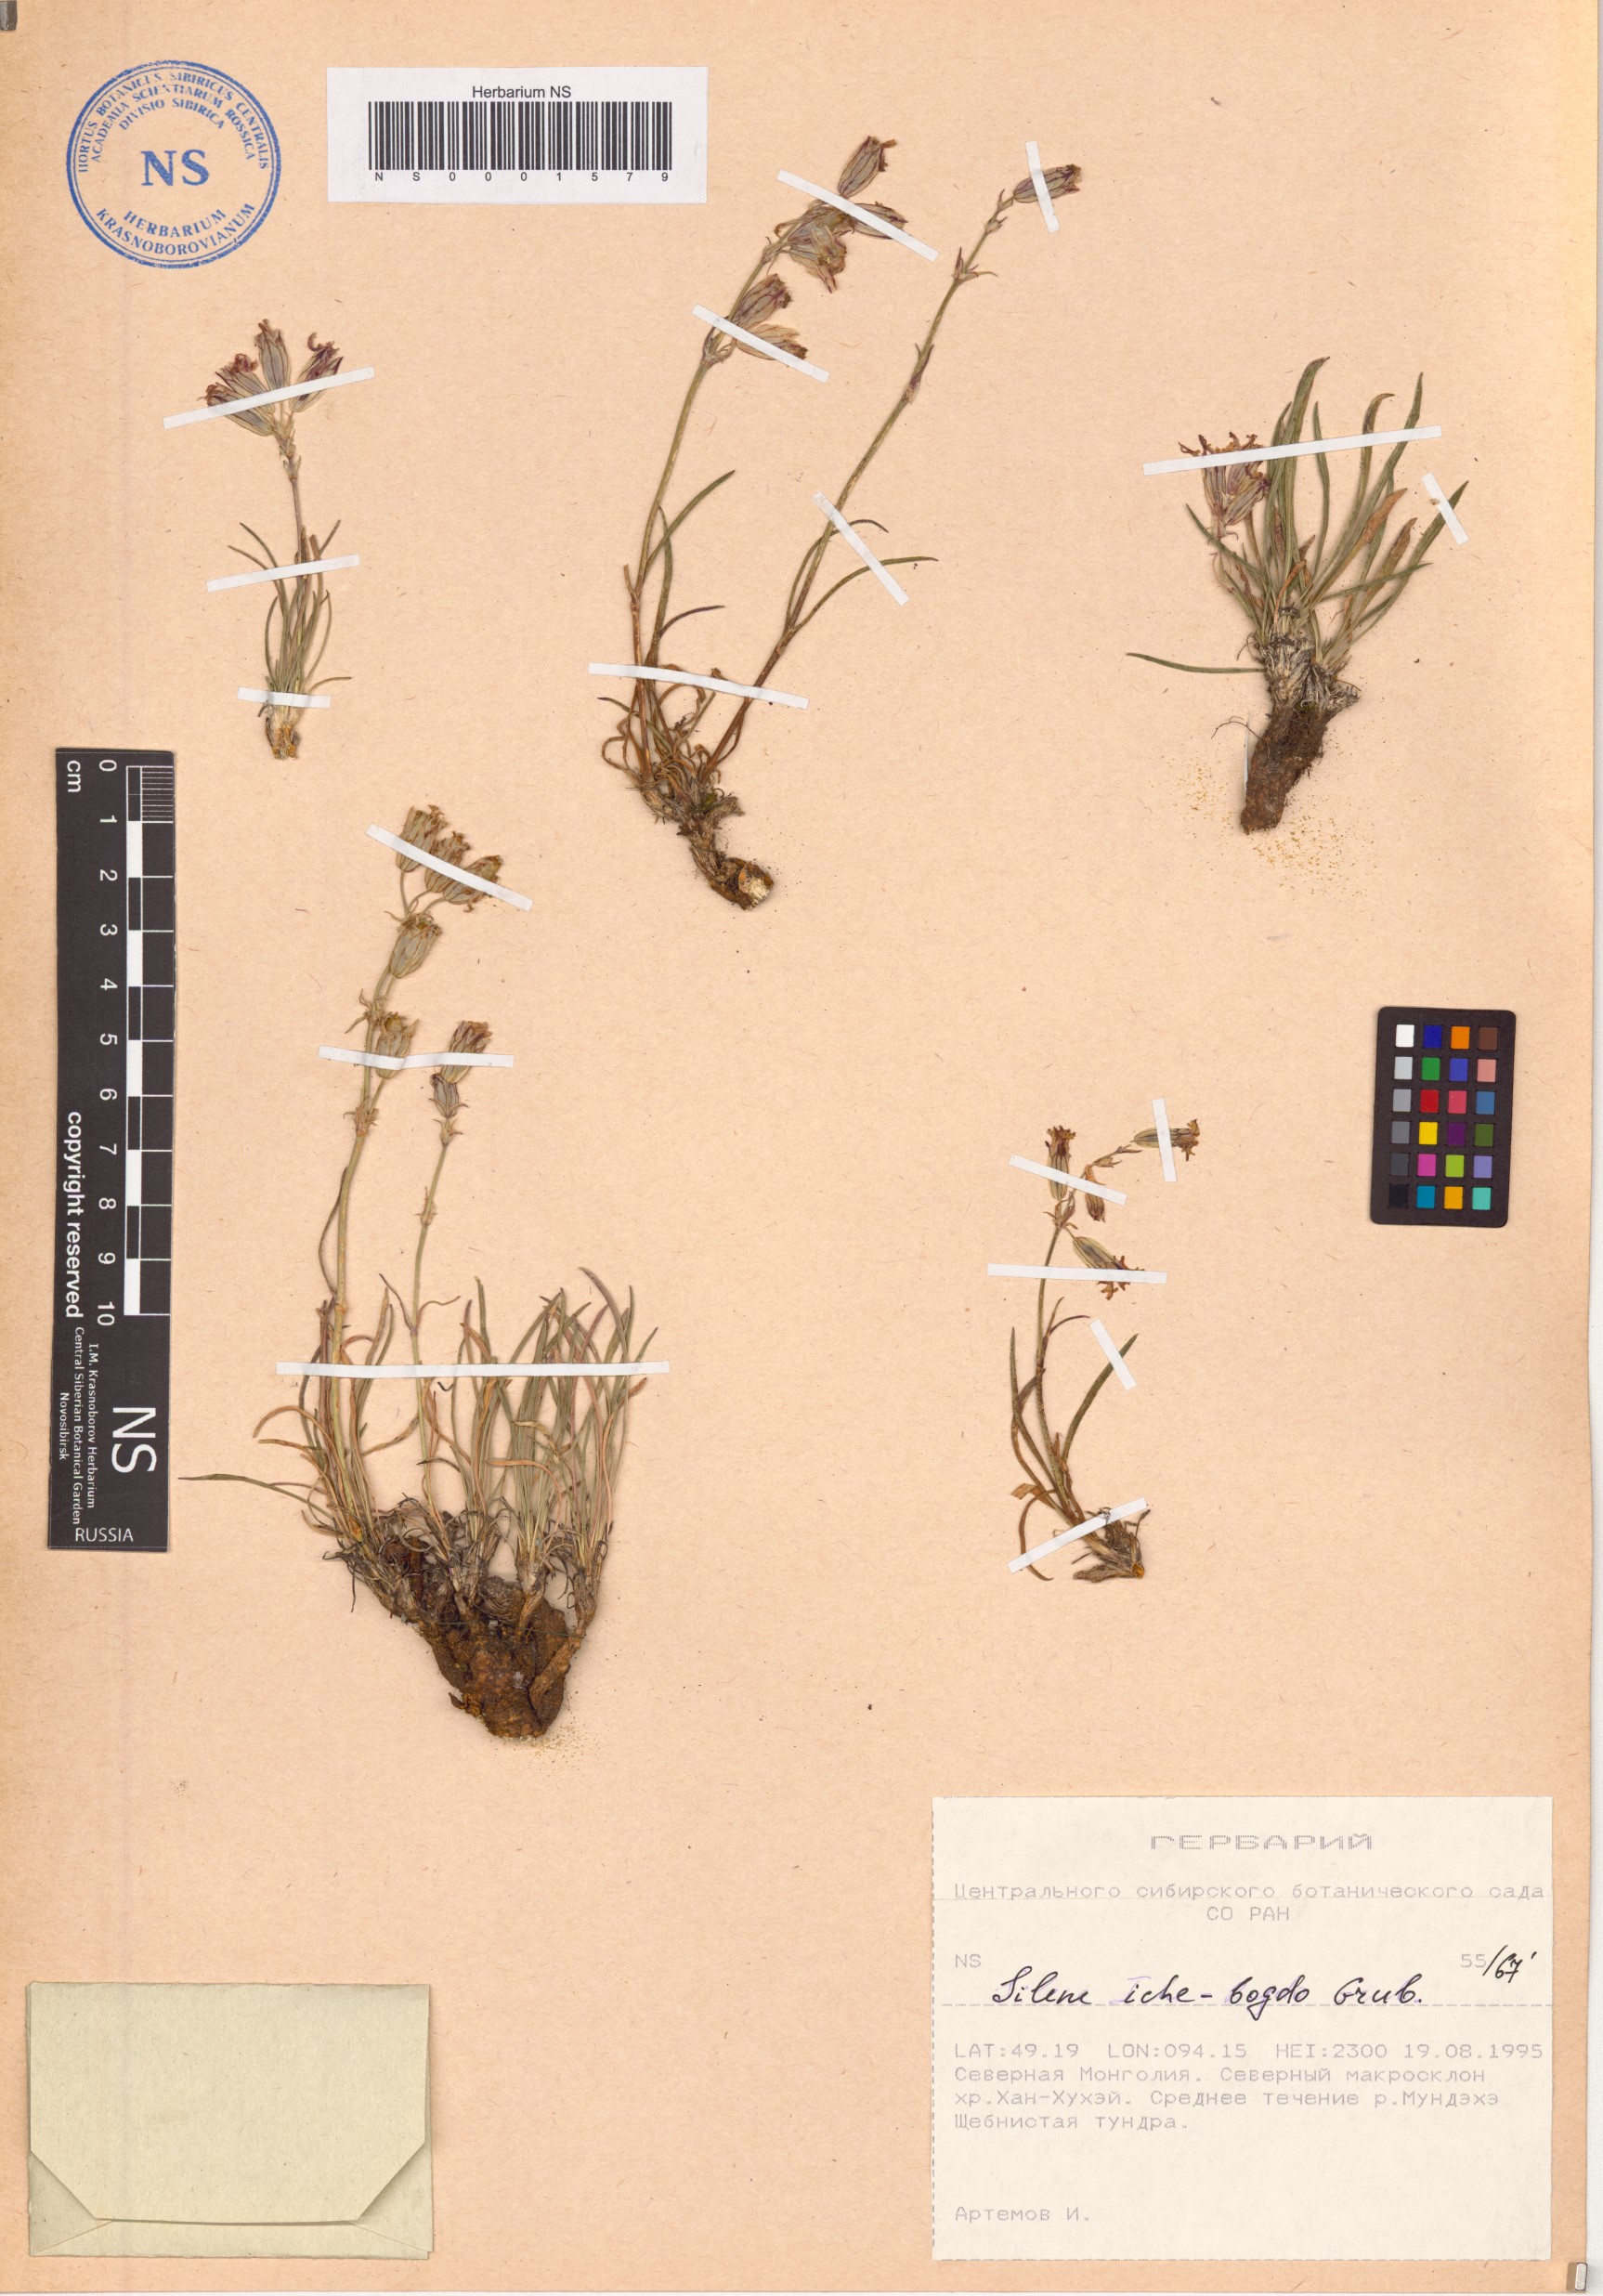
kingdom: Plantae
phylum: Tracheophyta
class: Magnoliopsida
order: Caryophyllales
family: Caryophyllaceae
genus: Silene
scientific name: Silene jeniseensis
